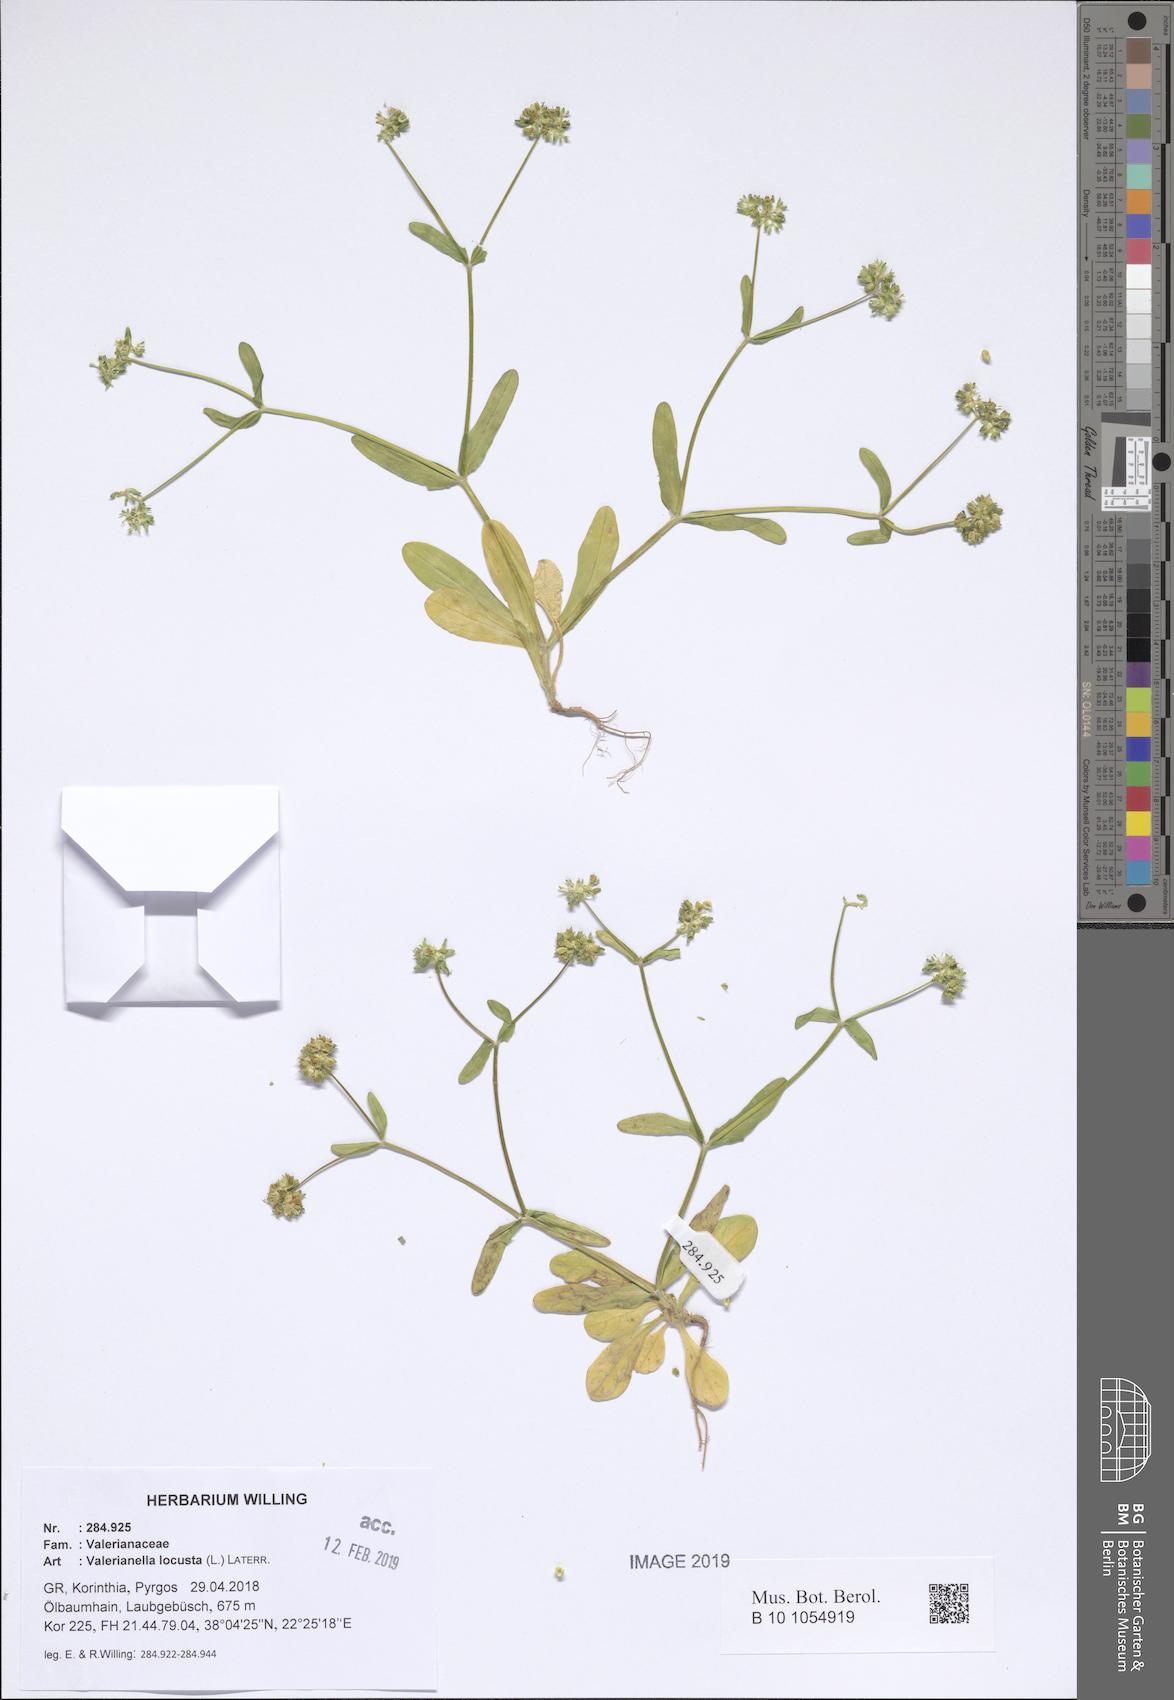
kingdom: Plantae
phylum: Tracheophyta
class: Magnoliopsida
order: Dipsacales
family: Caprifoliaceae
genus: Valerianella
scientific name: Valerianella locusta
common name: Common cornsalad
